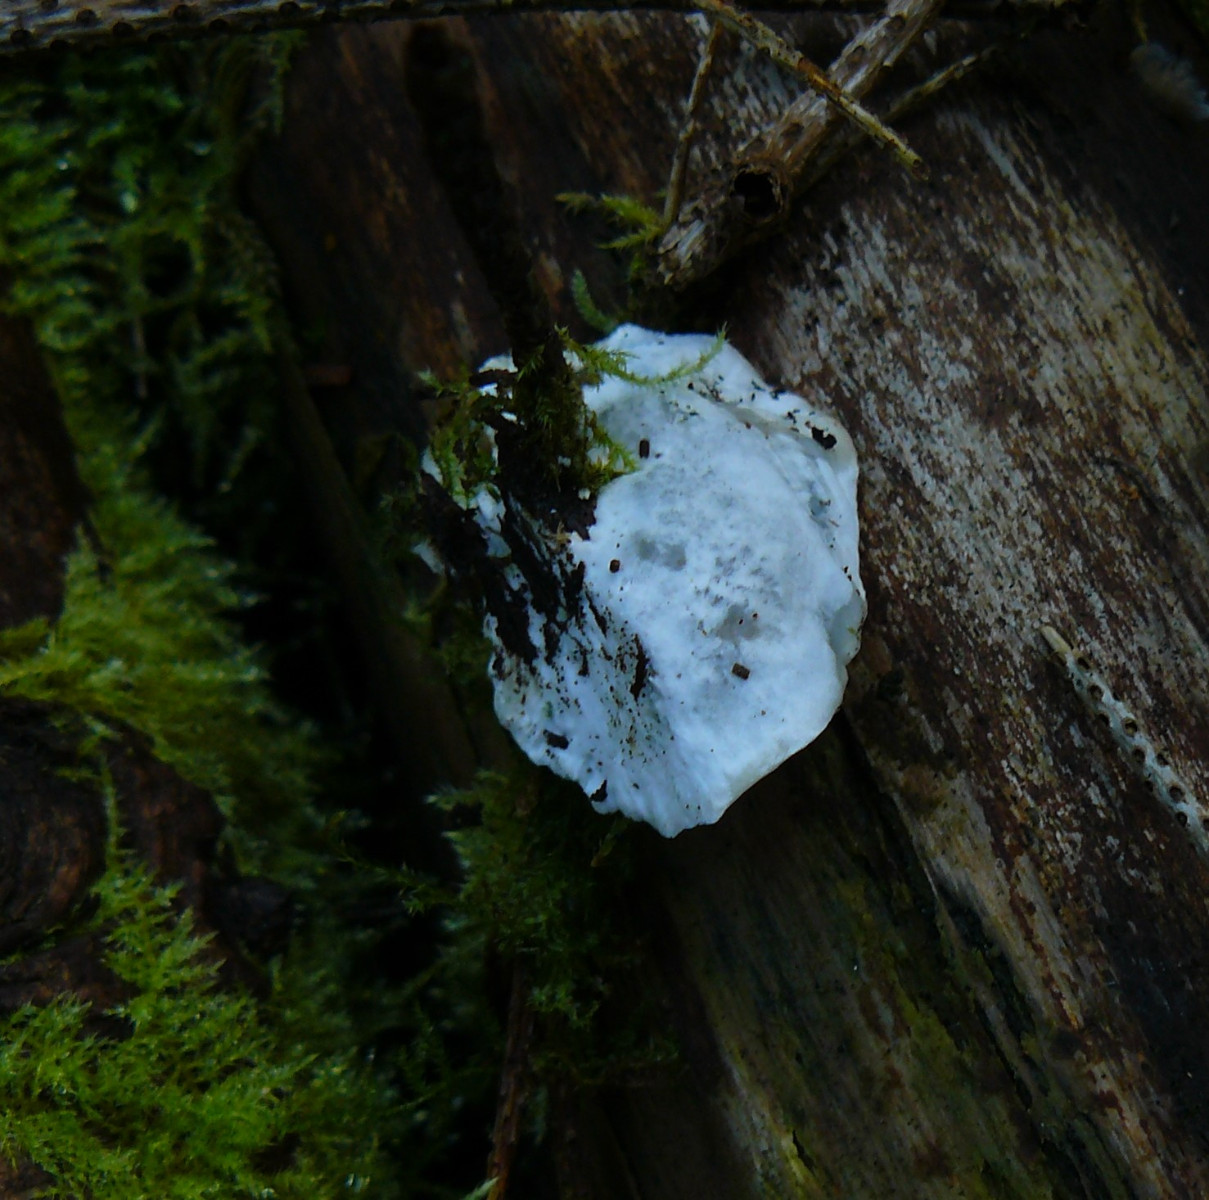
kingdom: Fungi
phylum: Basidiomycota
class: Agaricomycetes
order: Polyporales
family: Dacryobolaceae
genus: Postia
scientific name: Postia
